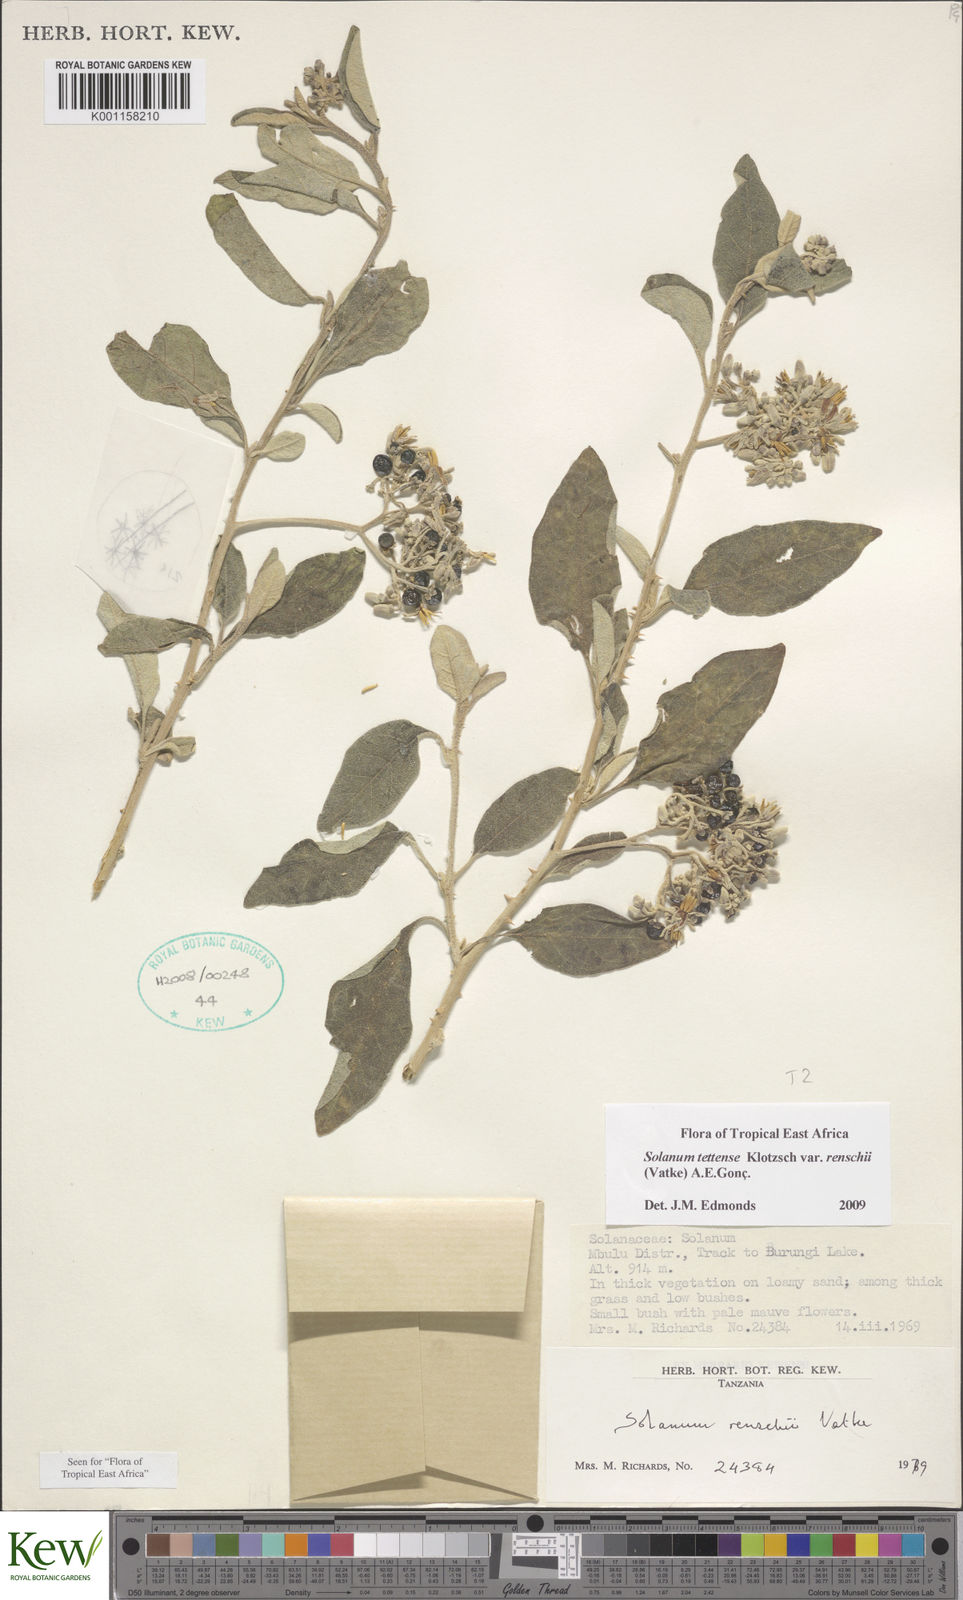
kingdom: Plantae
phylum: Tracheophyta
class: Magnoliopsida
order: Solanales
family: Solanaceae
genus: Solanum
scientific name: Solanum tettense
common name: Mozambique bitter apple
